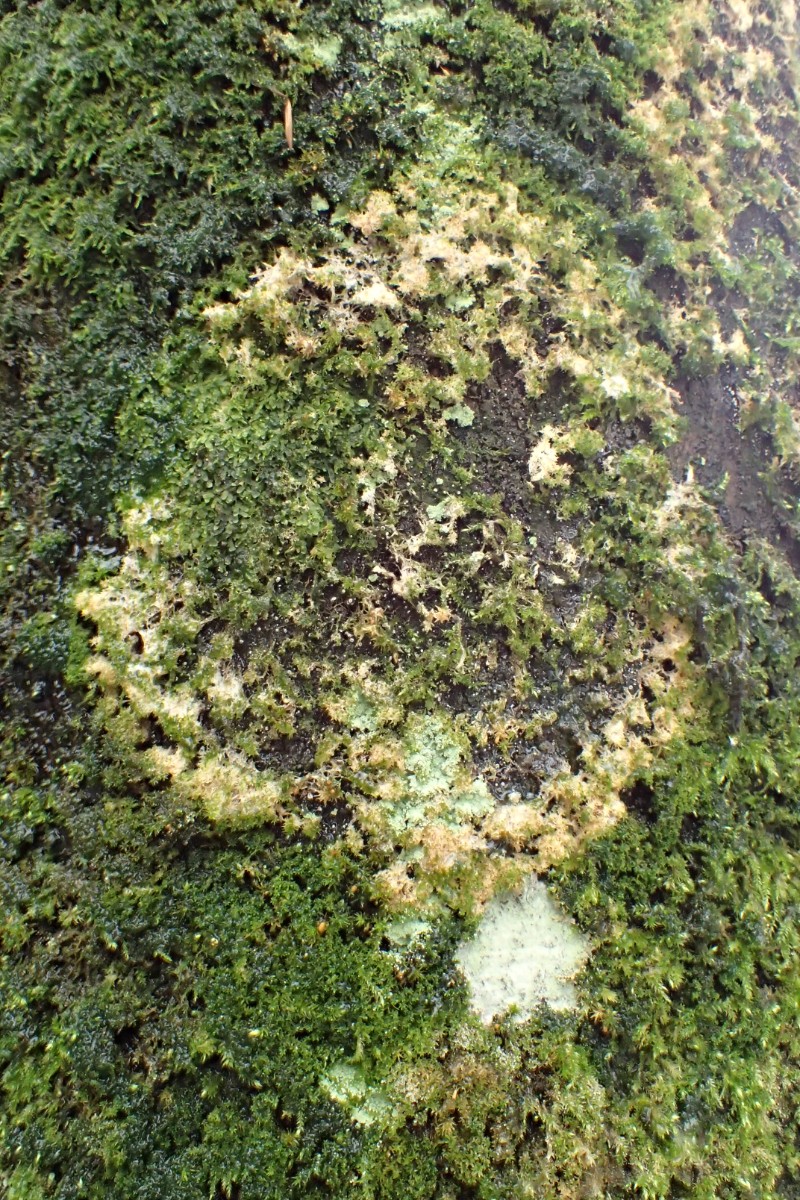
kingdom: Fungi
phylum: Basidiomycota
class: Agaricomycetes
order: Agaricales
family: Chromocyphellaceae
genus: Chromocyphella
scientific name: Chromocyphella muscicola
